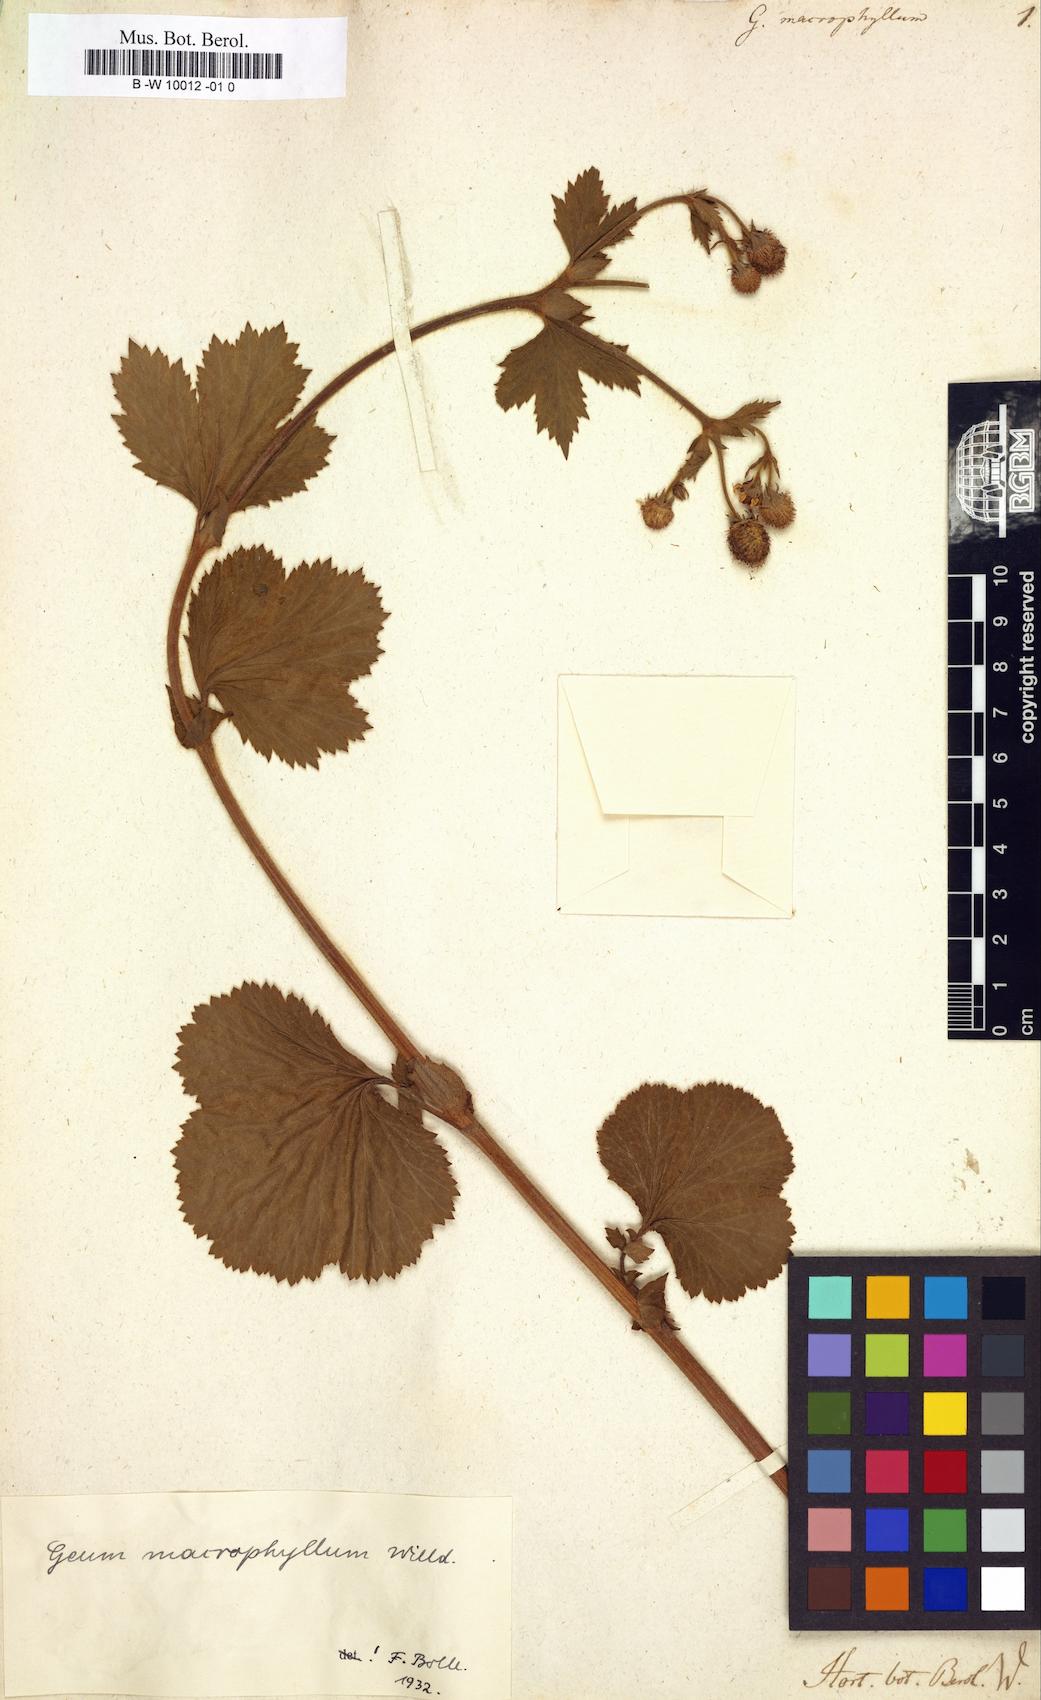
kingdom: Plantae
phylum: Tracheophyta
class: Magnoliopsida
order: Rosales
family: Rosaceae
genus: Geum
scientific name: Geum macrophyllum
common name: Large-leaved avens
